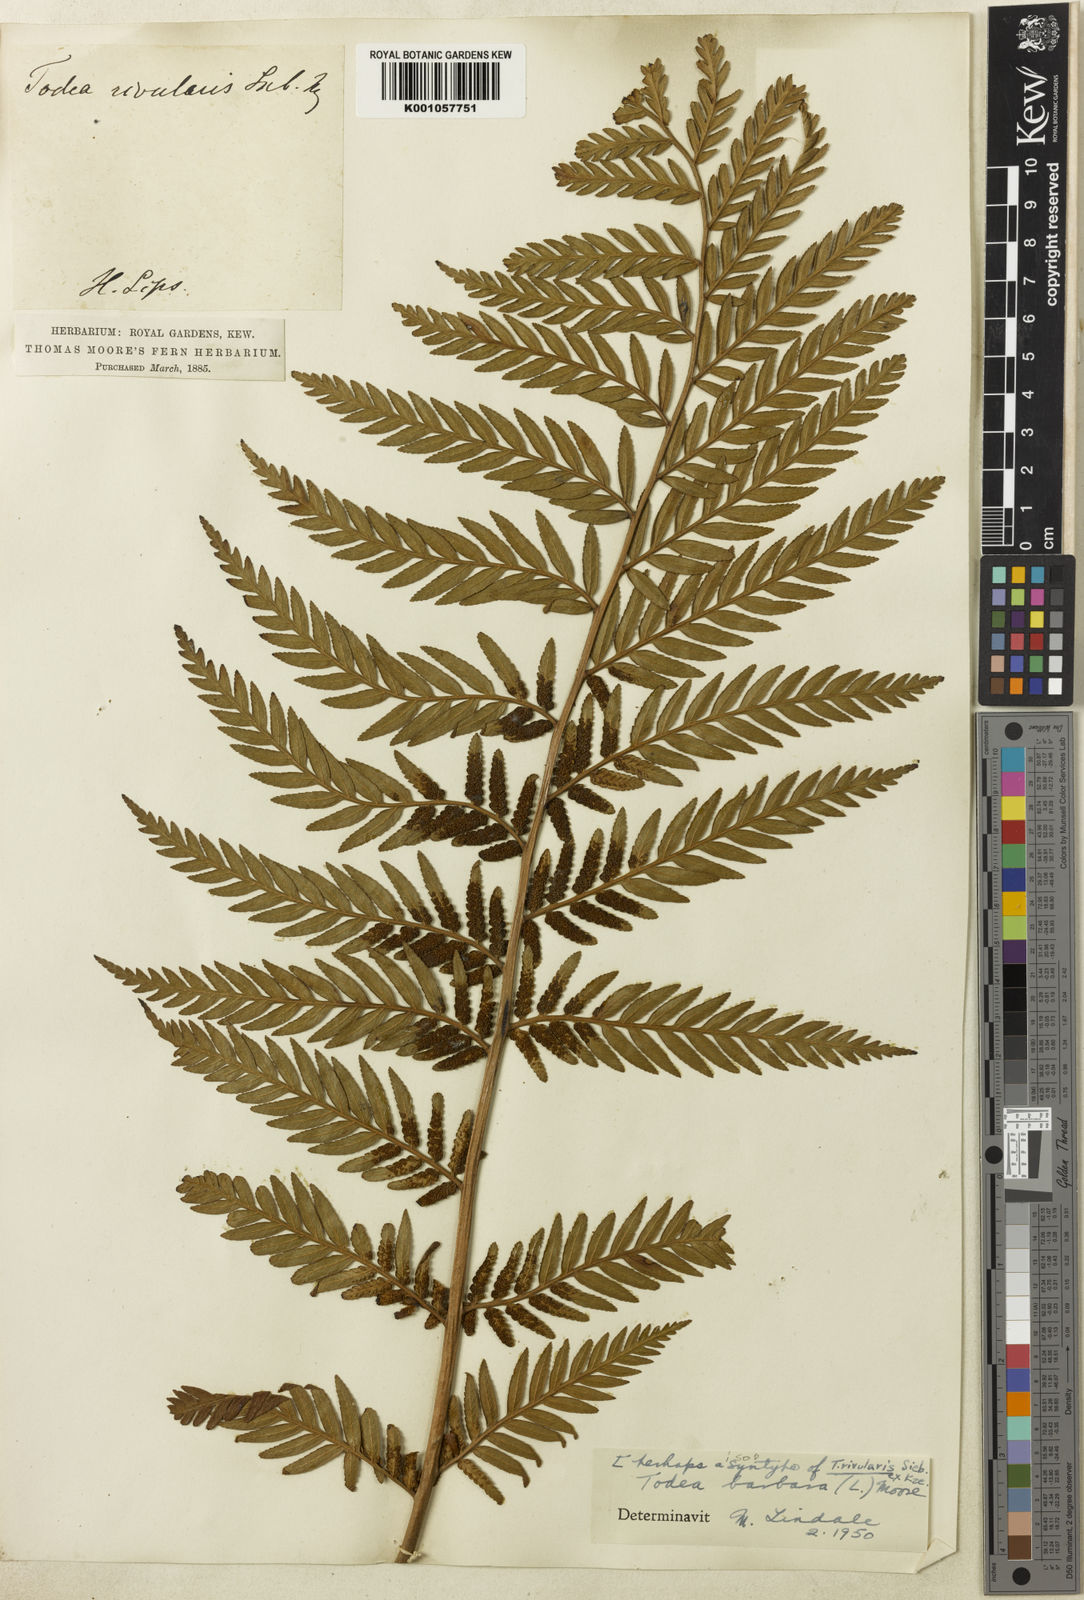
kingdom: Plantae
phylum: Tracheophyta
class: Polypodiopsida
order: Osmundales
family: Osmundaceae
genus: Todea
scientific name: Todea barbara
